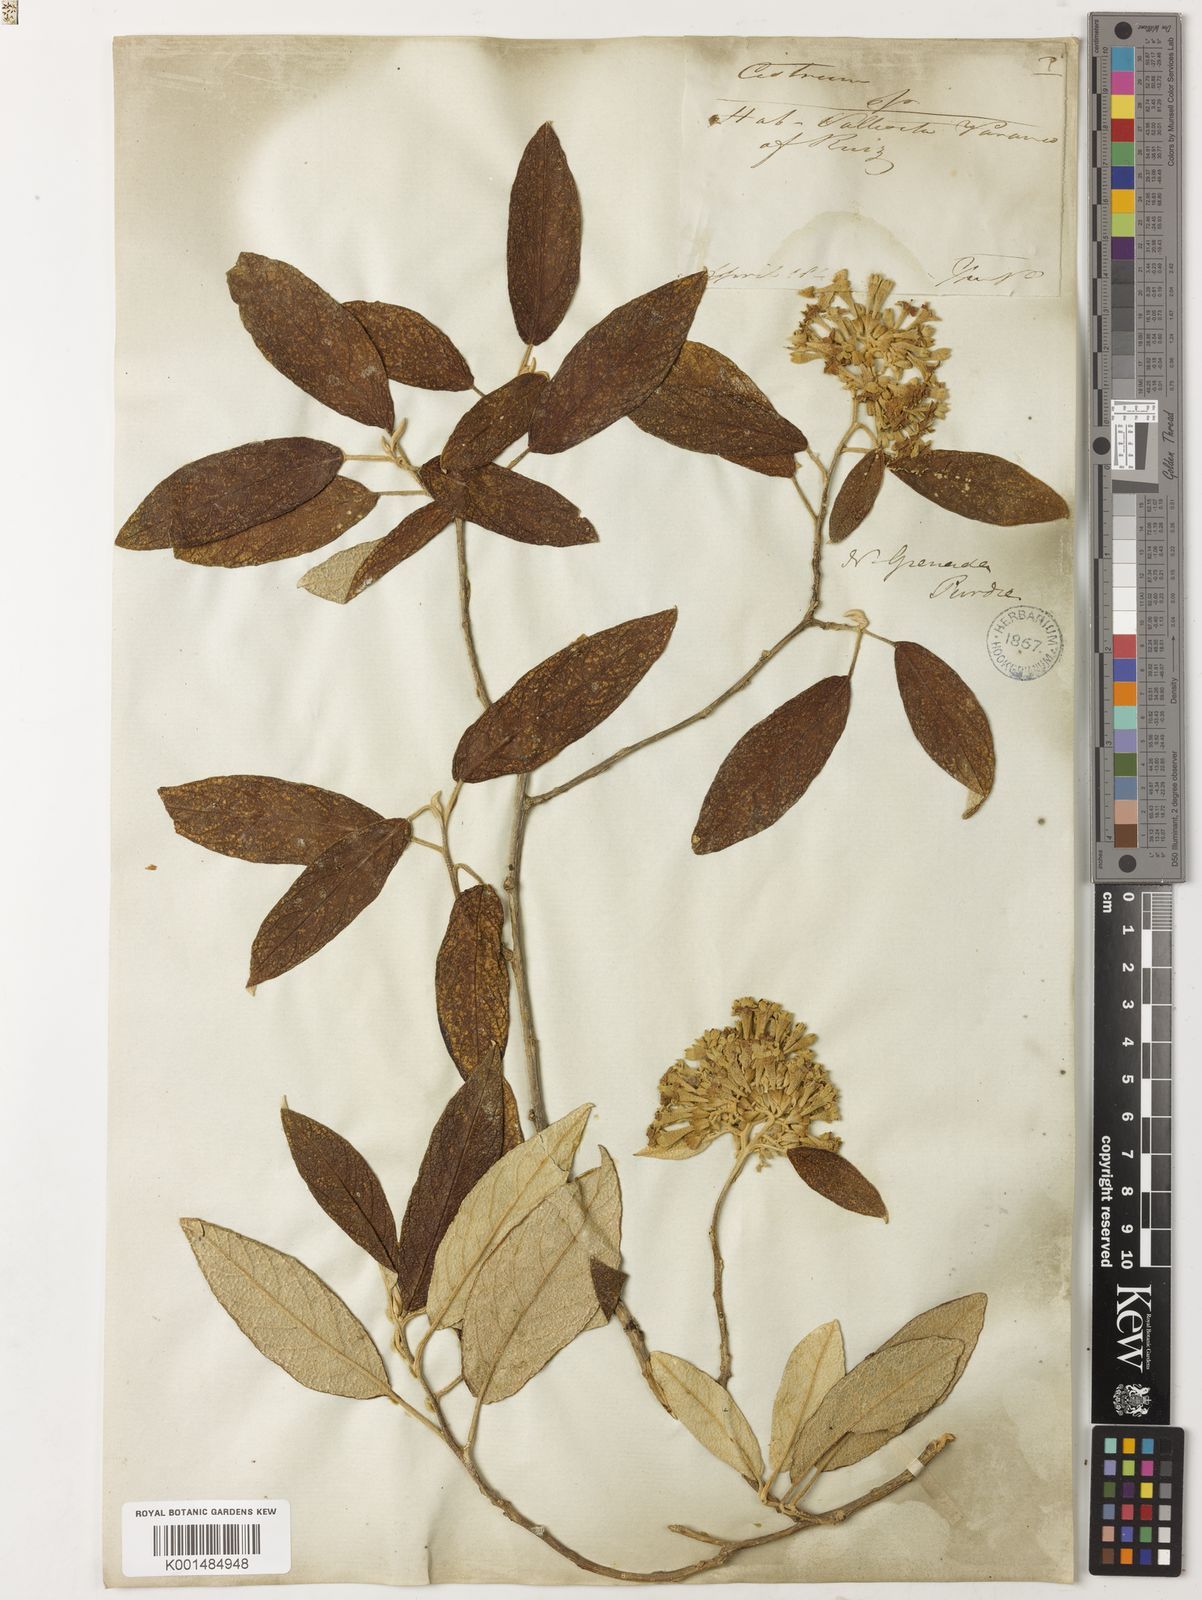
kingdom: Plantae
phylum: Tracheophyta
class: Magnoliopsida
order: Solanales
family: Solanaceae
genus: Sessea
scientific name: Sessea vestita
